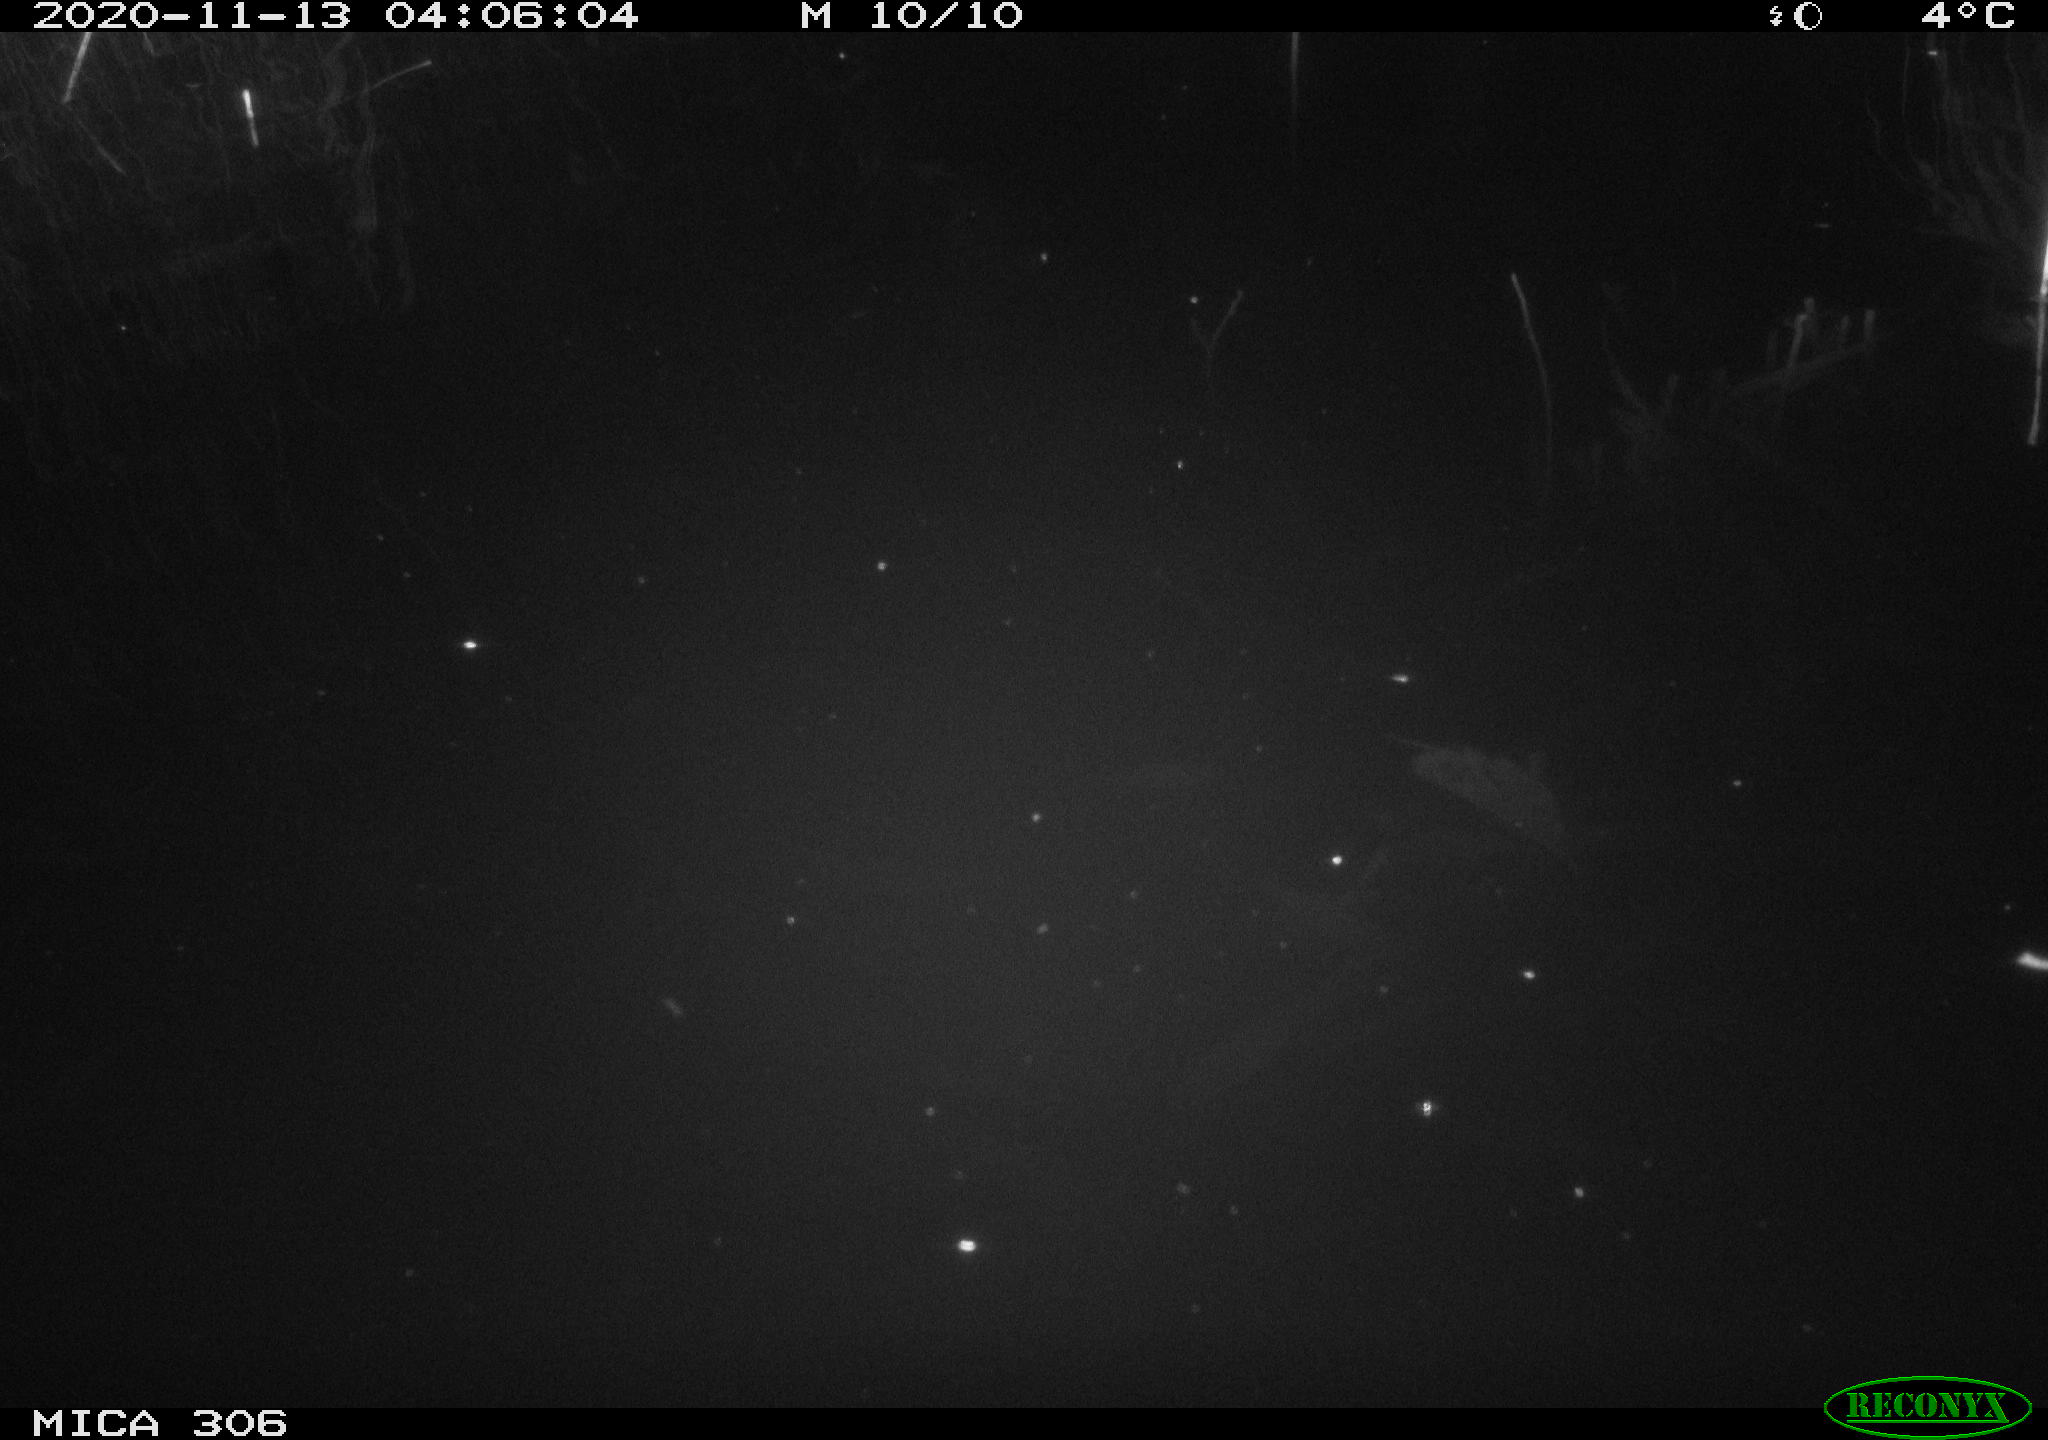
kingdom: Animalia
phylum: Chordata
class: Mammalia
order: Rodentia
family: Cricetidae
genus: Ondatra
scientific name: Ondatra zibethicus
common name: Muskrat
